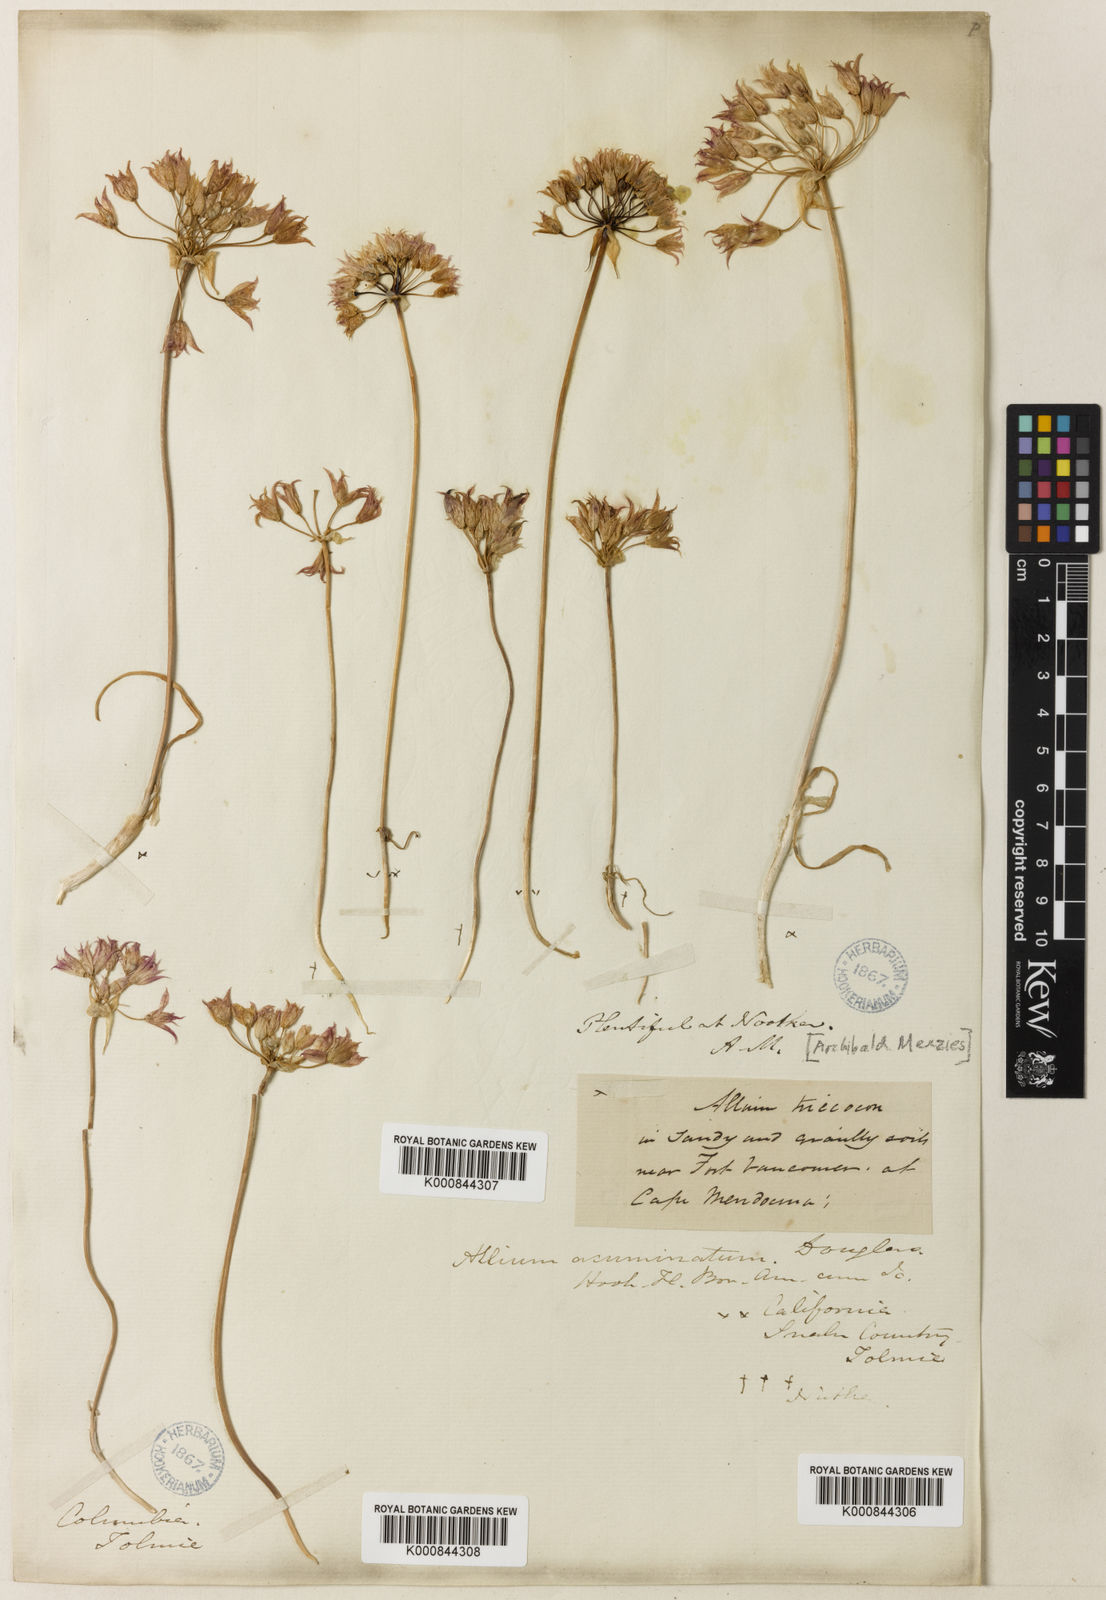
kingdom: Plantae
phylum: Tracheophyta
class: Liliopsida
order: Asparagales
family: Amaryllidaceae
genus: Allium
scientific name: Allium
